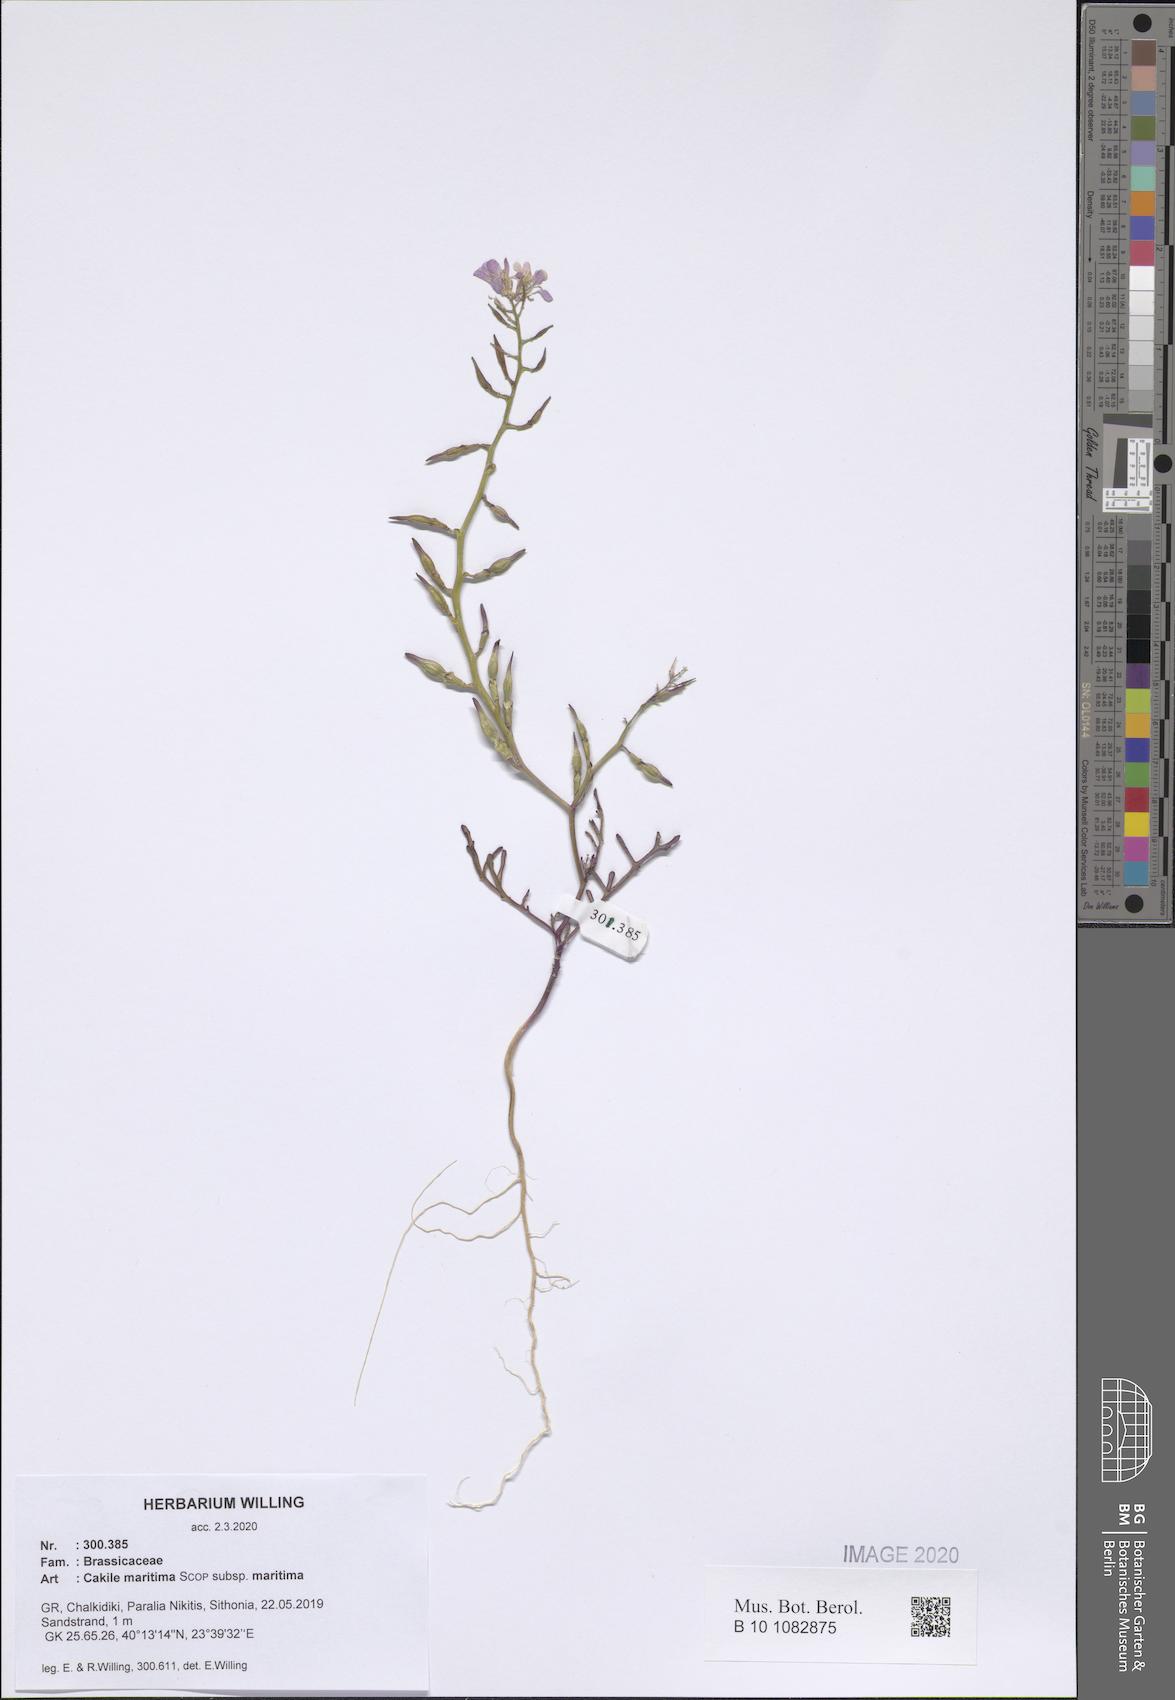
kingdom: Plantae
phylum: Tracheophyta
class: Magnoliopsida
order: Brassicales
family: Brassicaceae
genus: Cakile
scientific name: Cakile maritima
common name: Sea rocket
